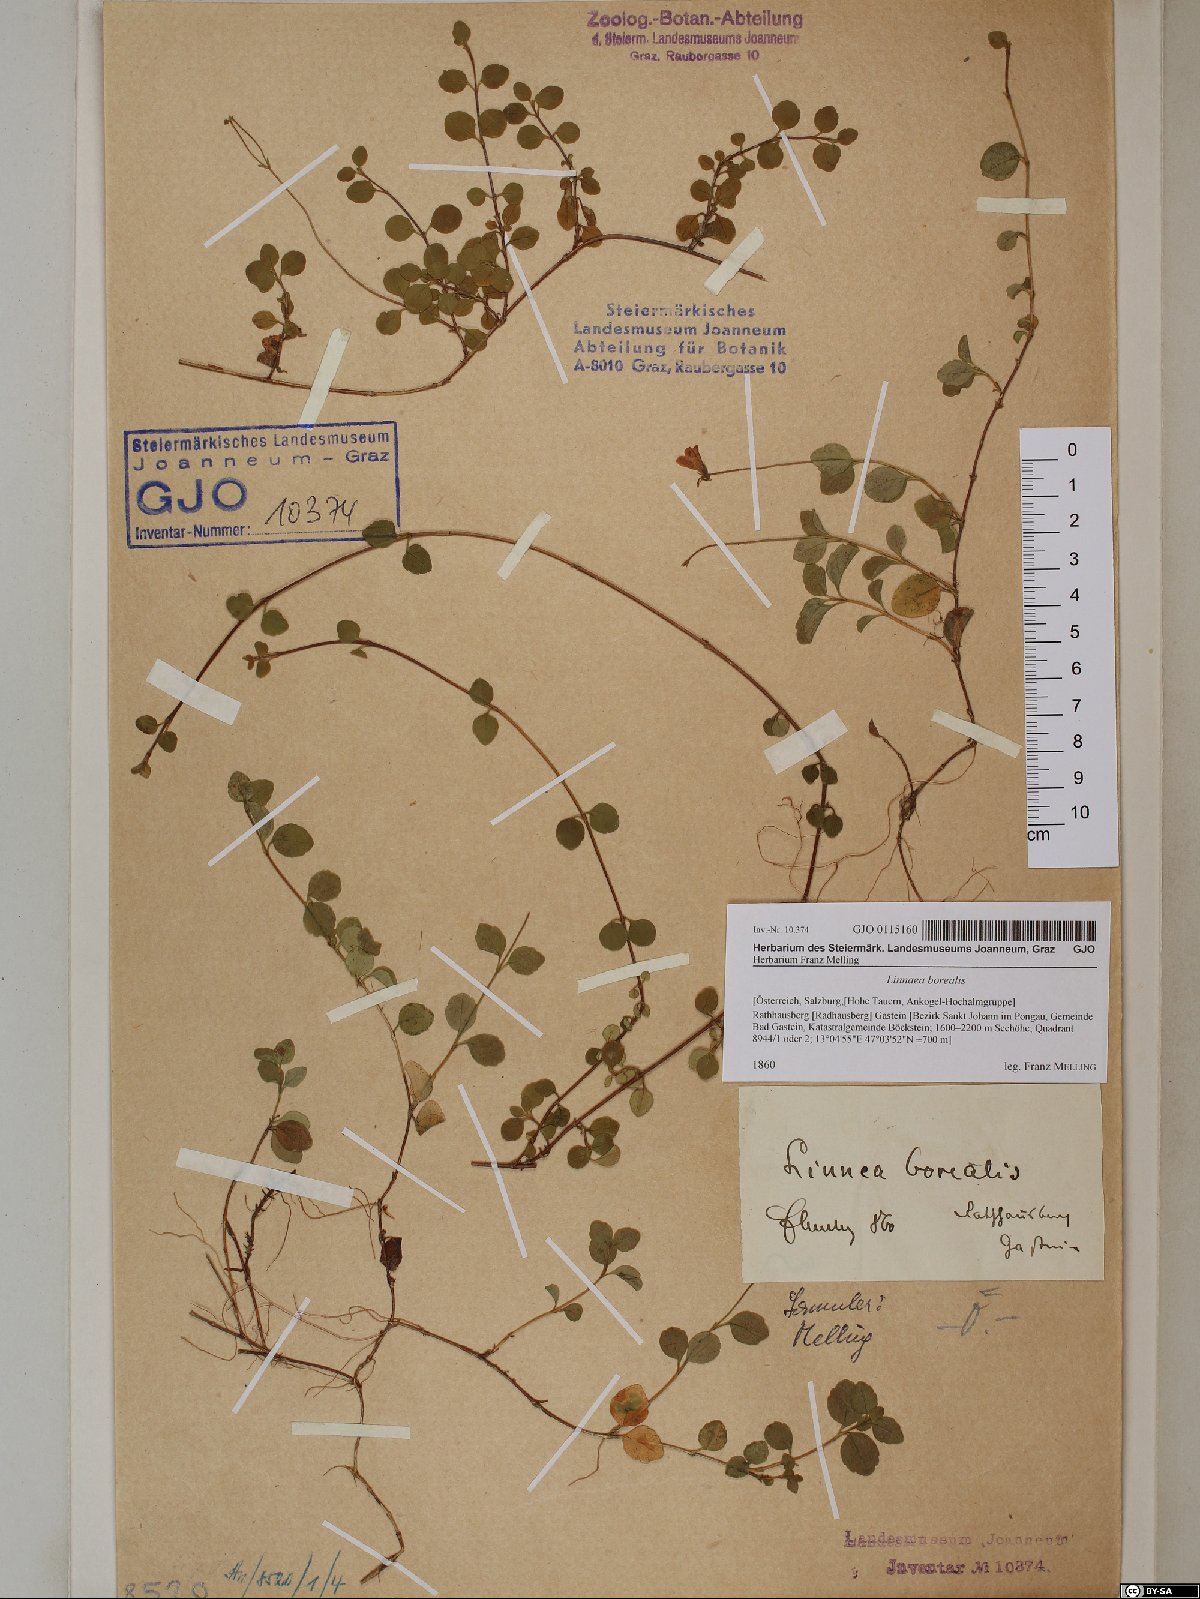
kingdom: Plantae
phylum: Tracheophyta
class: Magnoliopsida
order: Dipsacales
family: Caprifoliaceae
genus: Linnaea
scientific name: Linnaea borealis
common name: Twinflower
